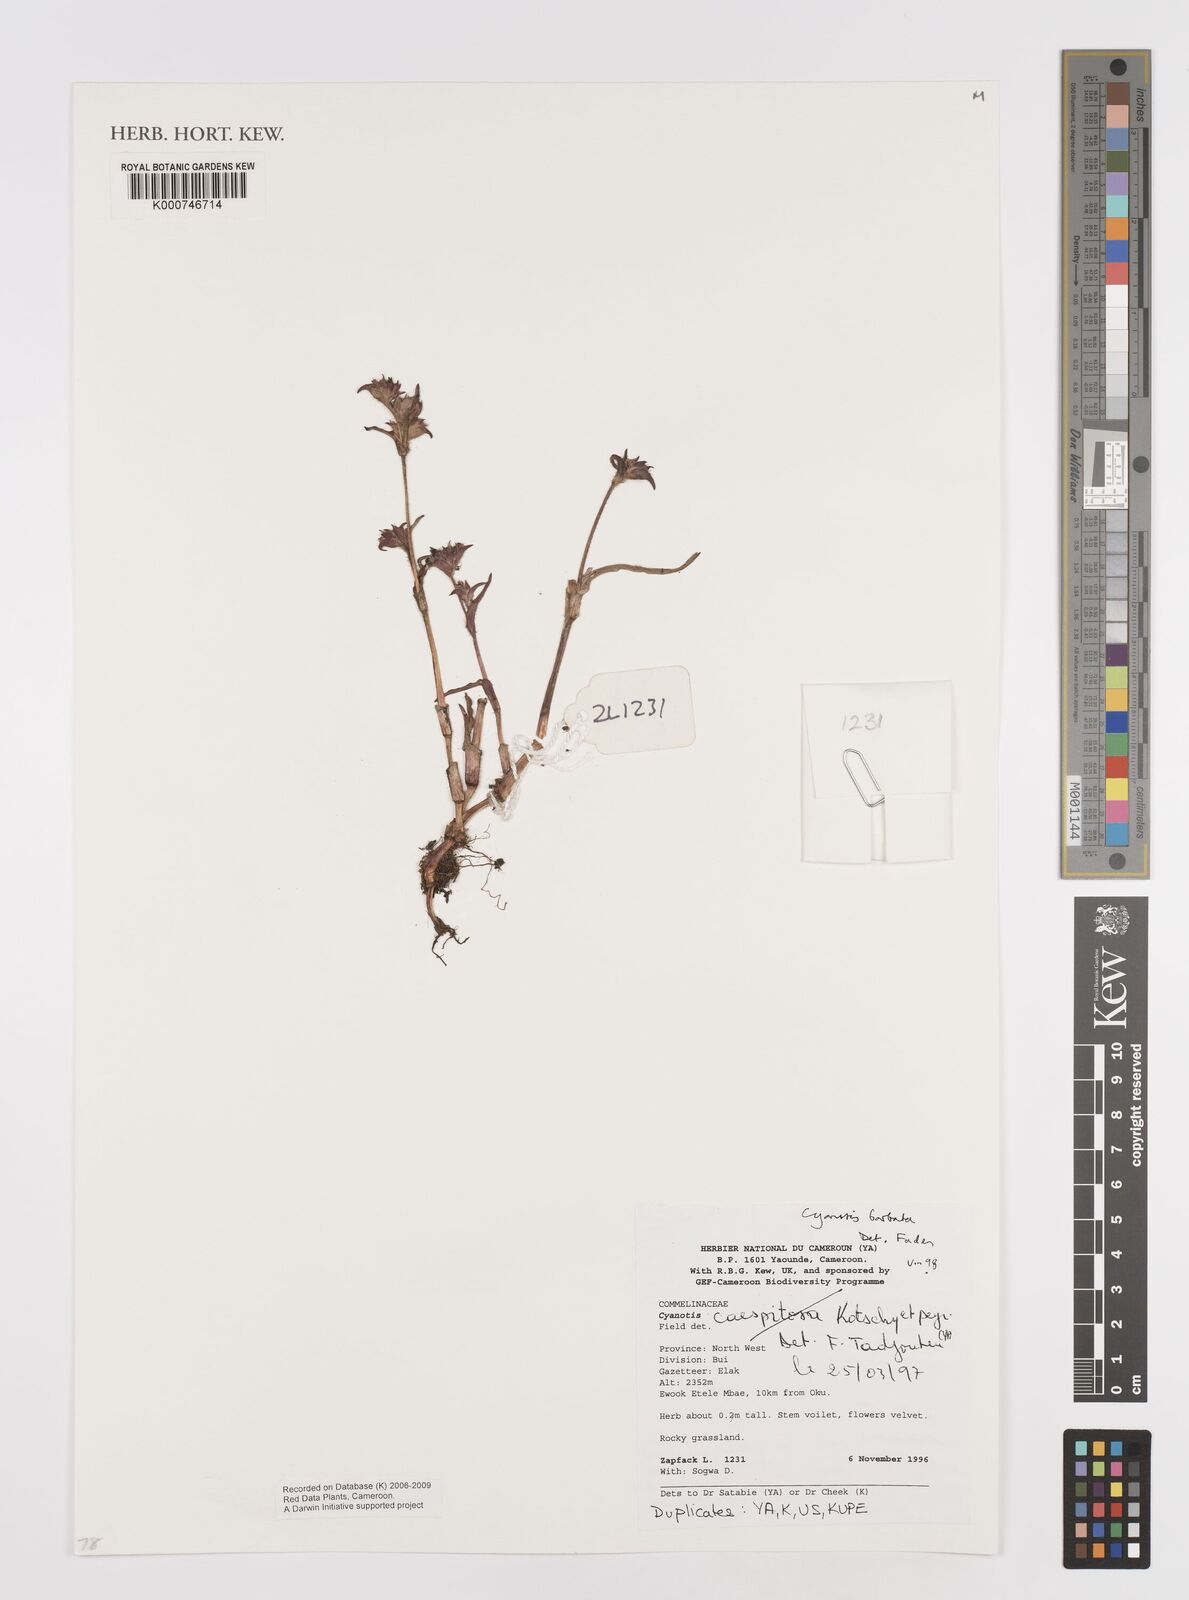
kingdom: Plantae
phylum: Tracheophyta
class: Liliopsida
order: Commelinales
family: Commelinaceae
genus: Cyanotis
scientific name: Cyanotis vaga
